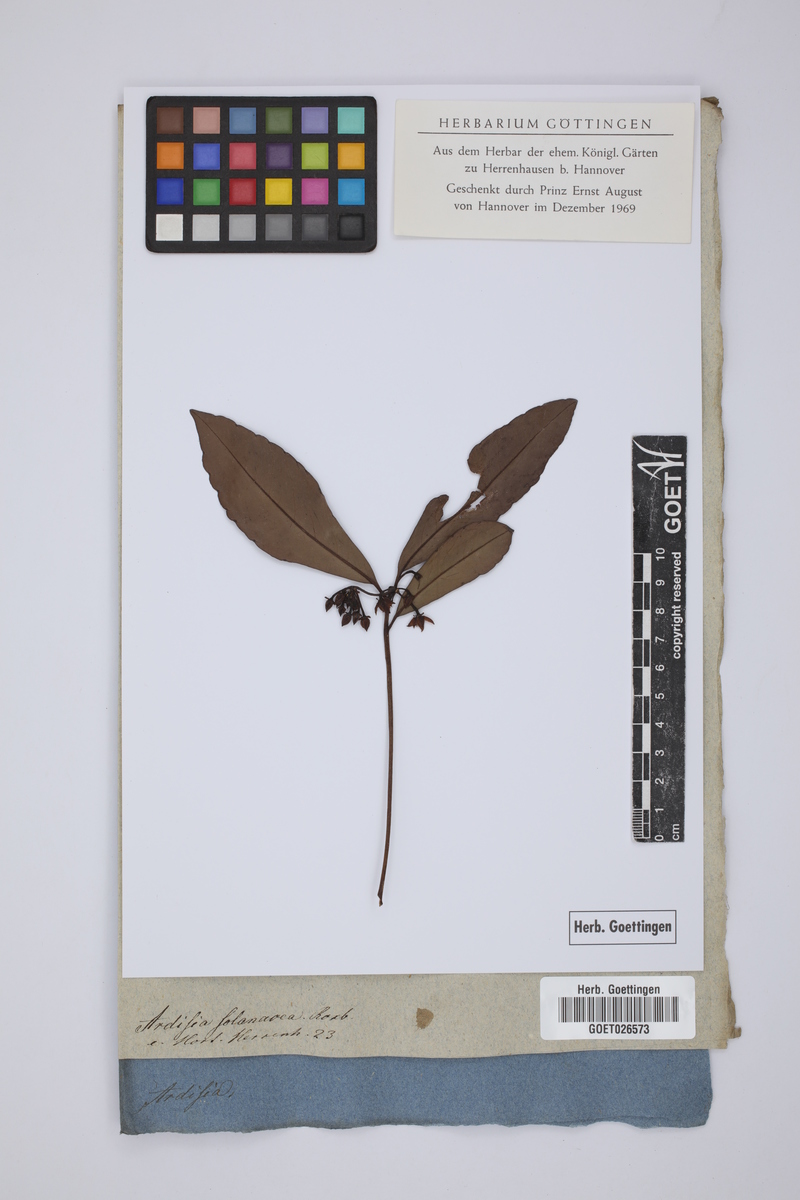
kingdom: Plantae
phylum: Tracheophyta
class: Magnoliopsida
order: Ericales
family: Primulaceae
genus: Ardisia
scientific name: Ardisia humilis
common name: Low shoebutton
